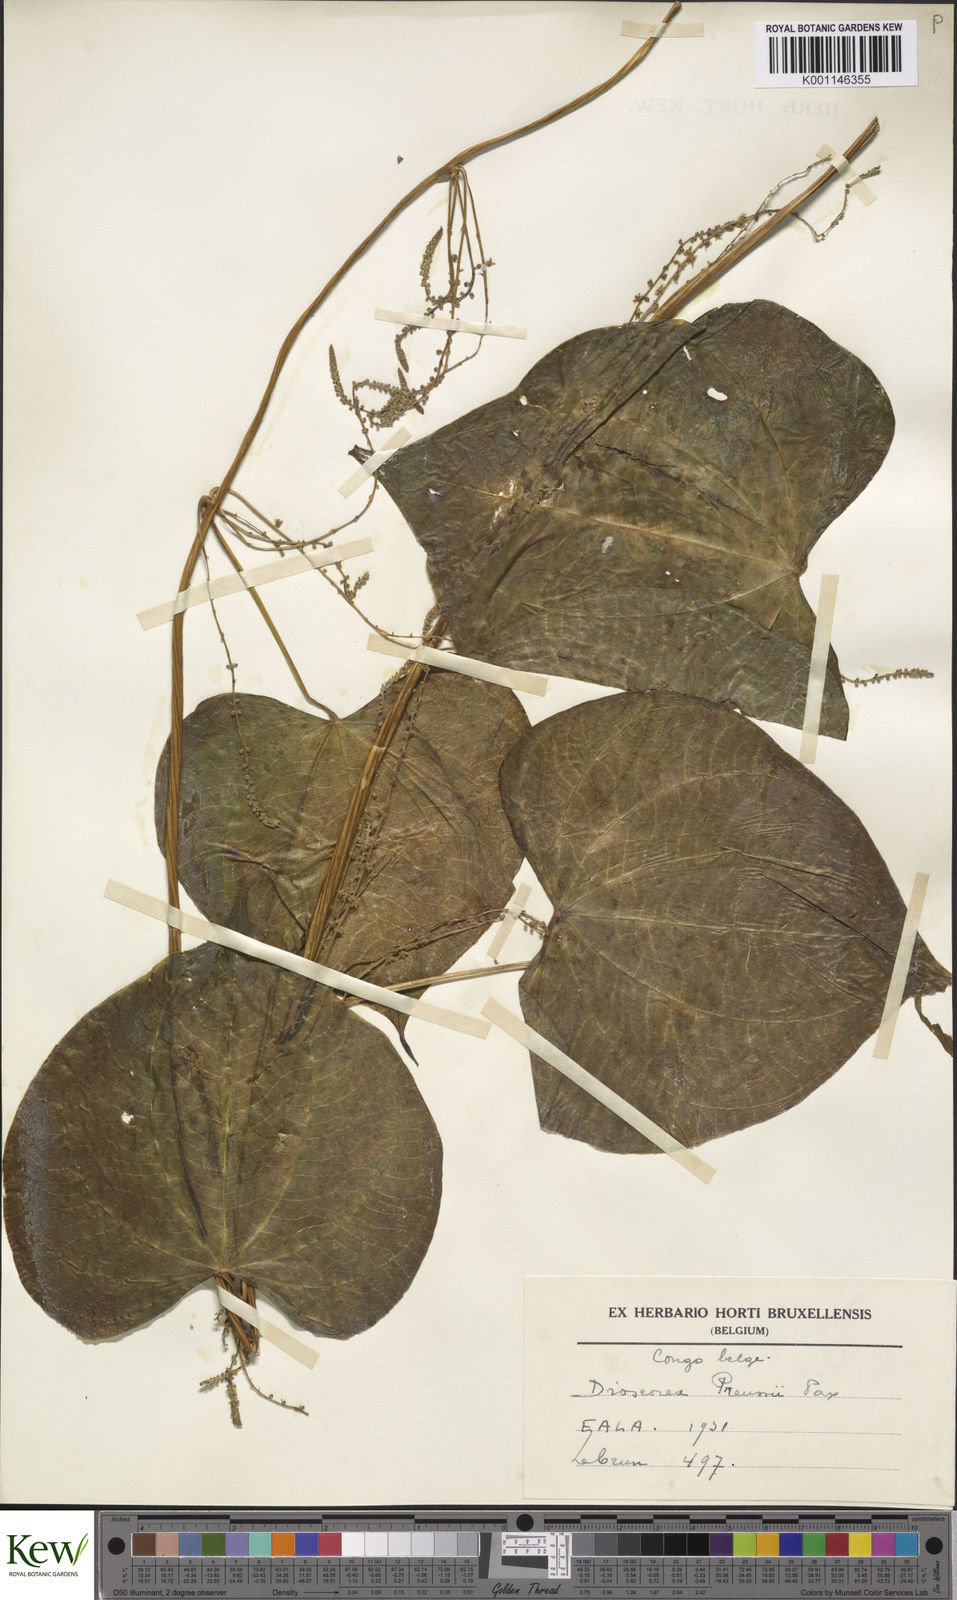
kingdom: Plantae
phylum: Tracheophyta
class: Liliopsida
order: Dioscoreales
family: Dioscoreaceae
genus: Dioscorea
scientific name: Dioscorea preussii
